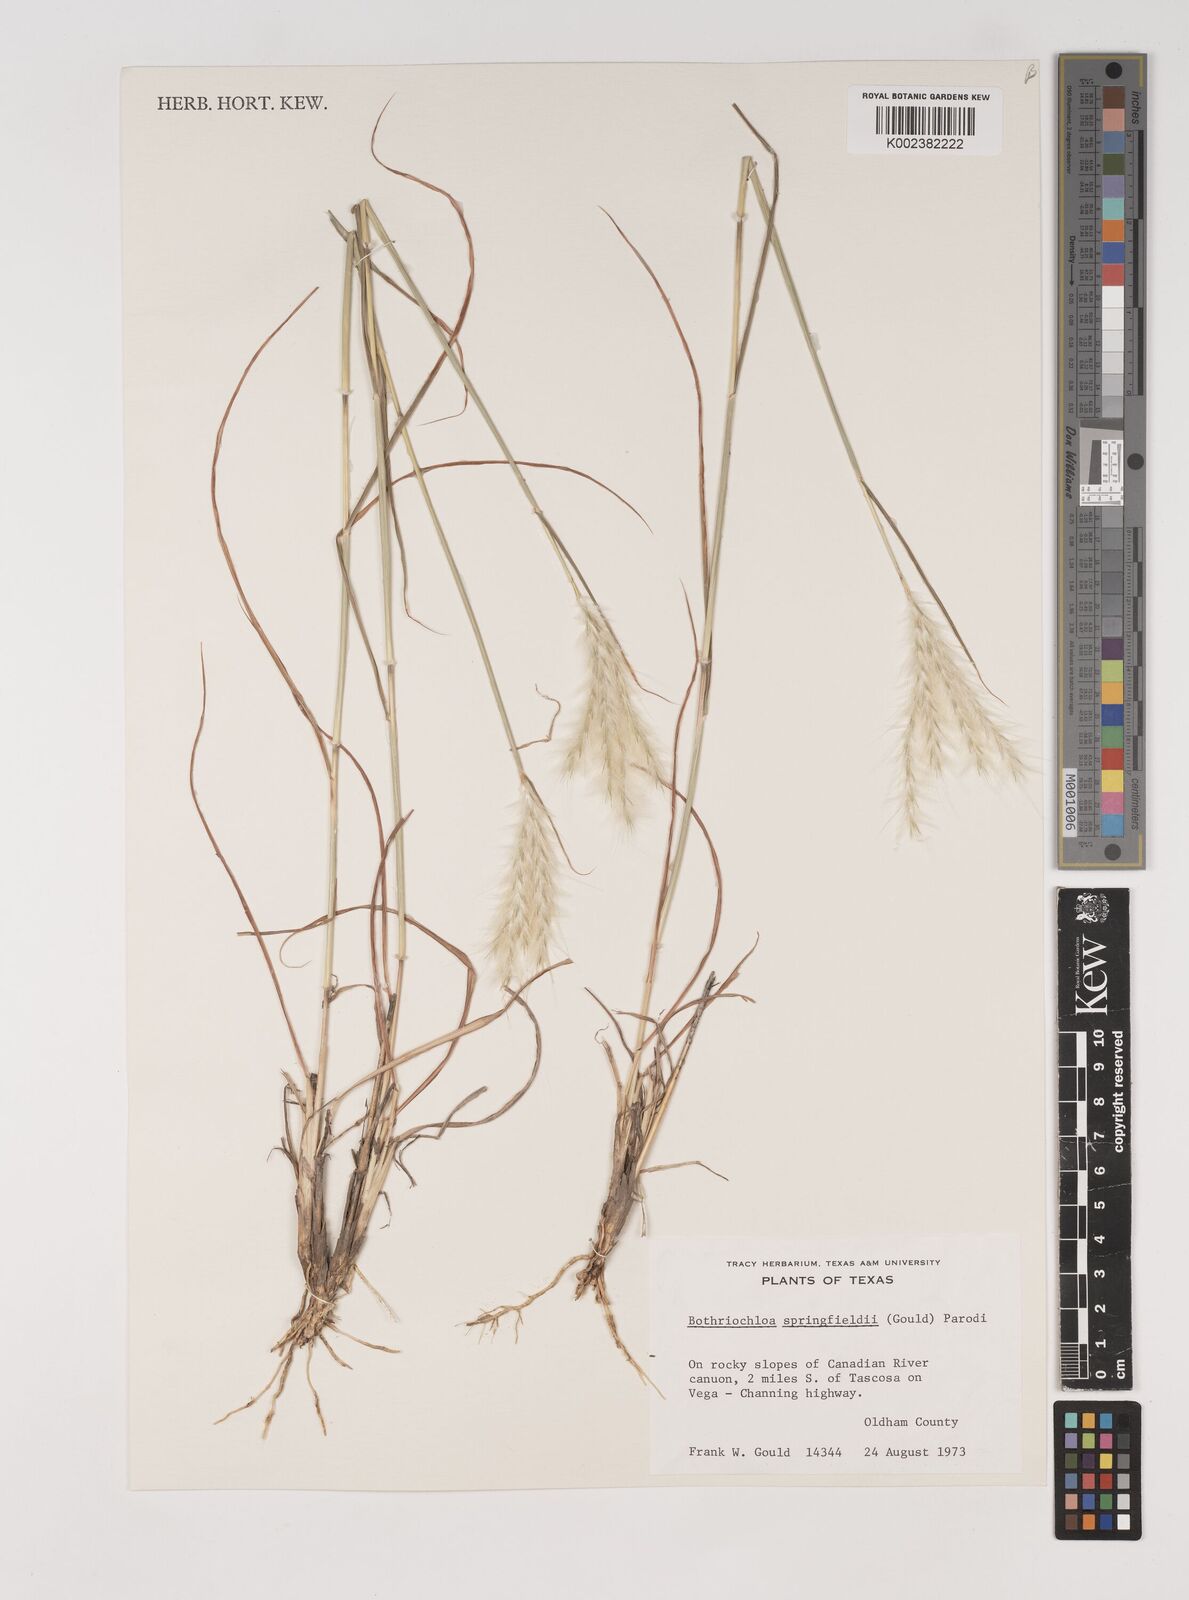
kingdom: Plantae
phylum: Tracheophyta
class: Liliopsida
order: Poales
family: Poaceae
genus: Bothriochloa
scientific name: Bothriochloa springfieldii
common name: Springfield bluestem
